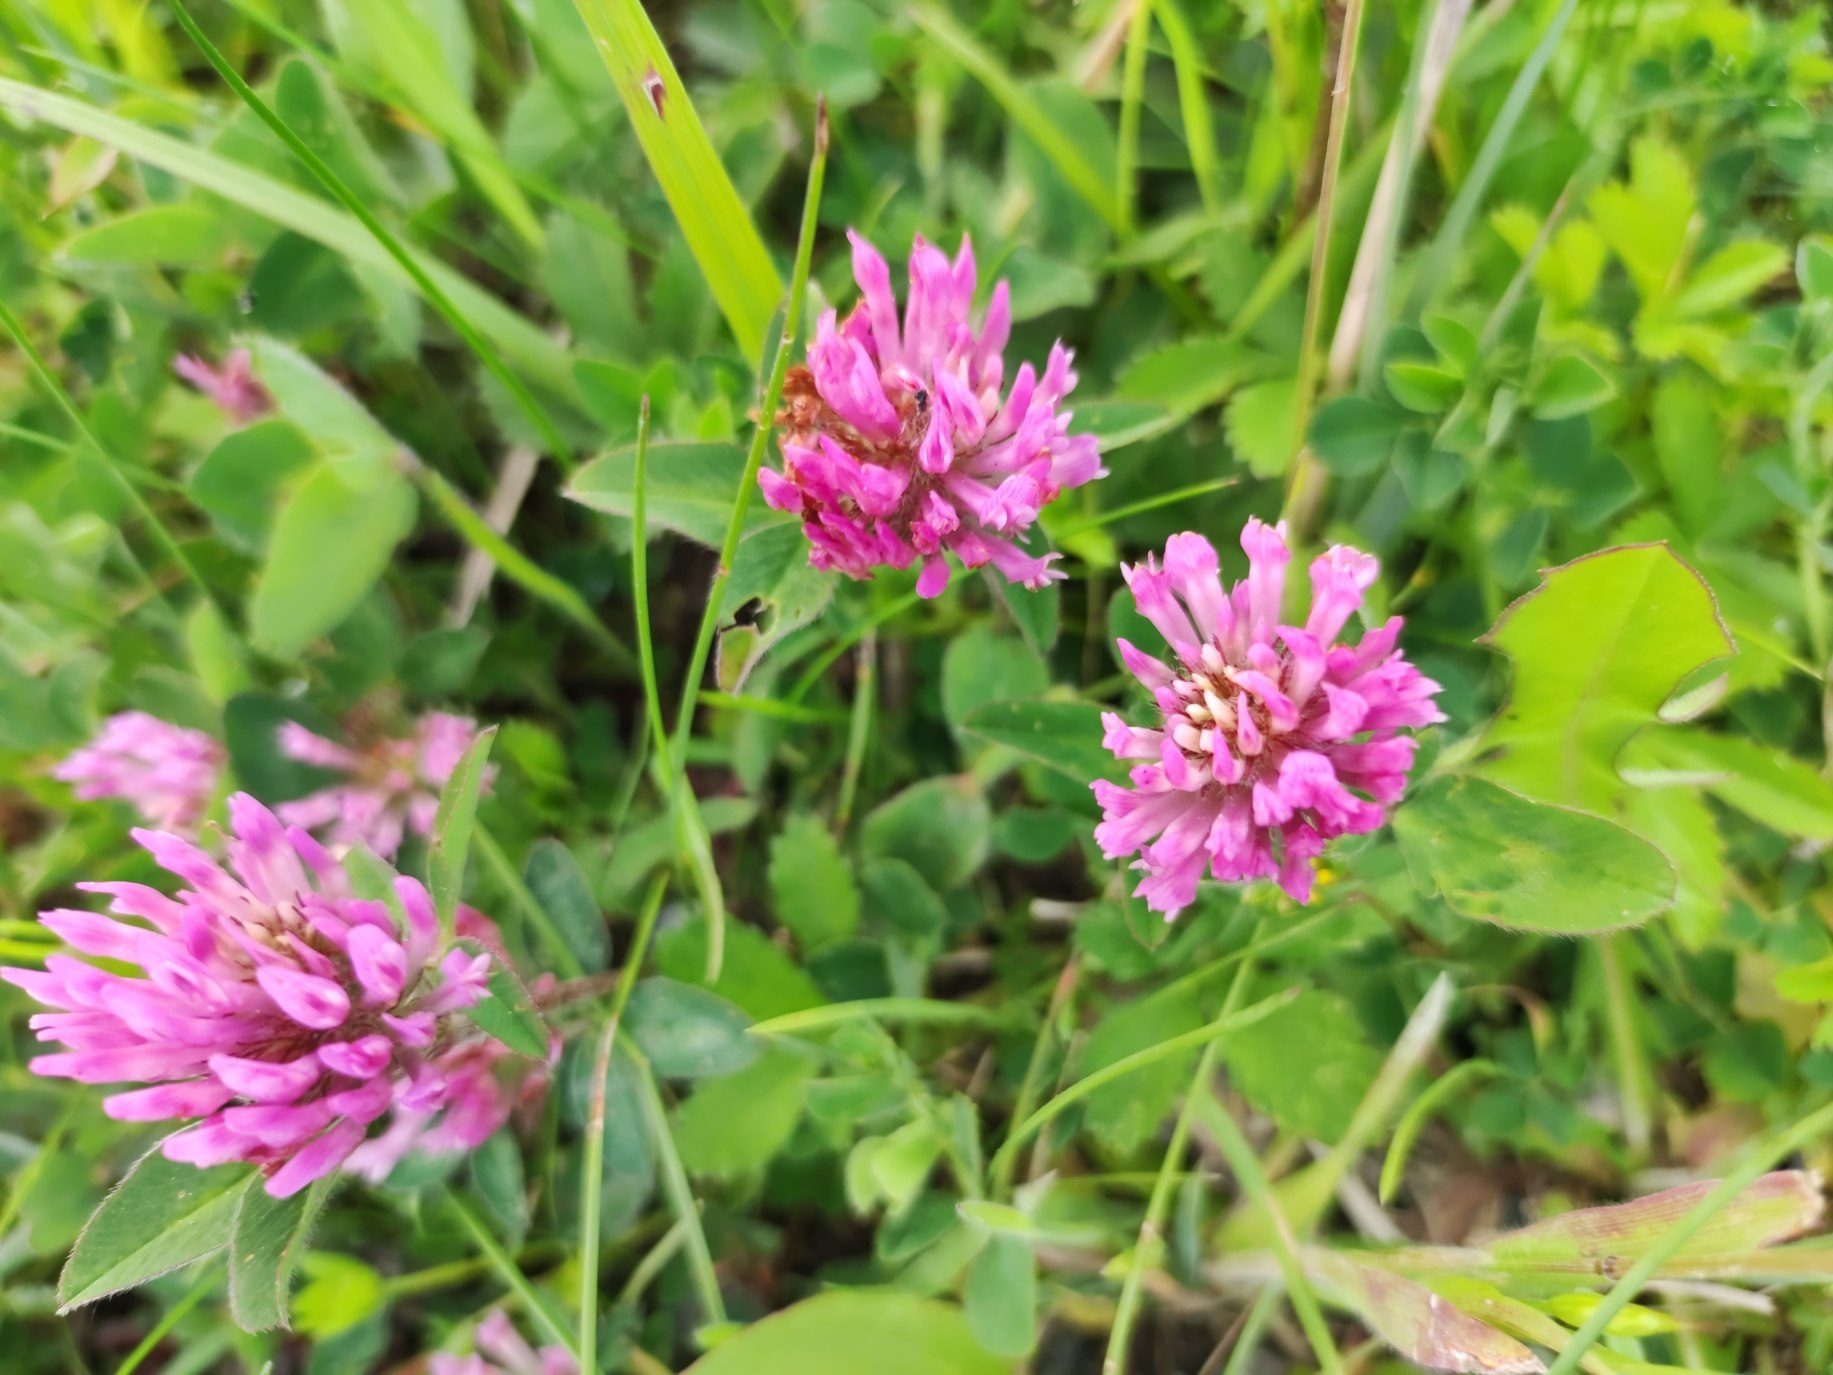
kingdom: Plantae
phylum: Tracheophyta
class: Magnoliopsida
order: Fabales
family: Fabaceae
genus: Trifolium
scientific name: Trifolium pratense
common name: Rød-kløver
